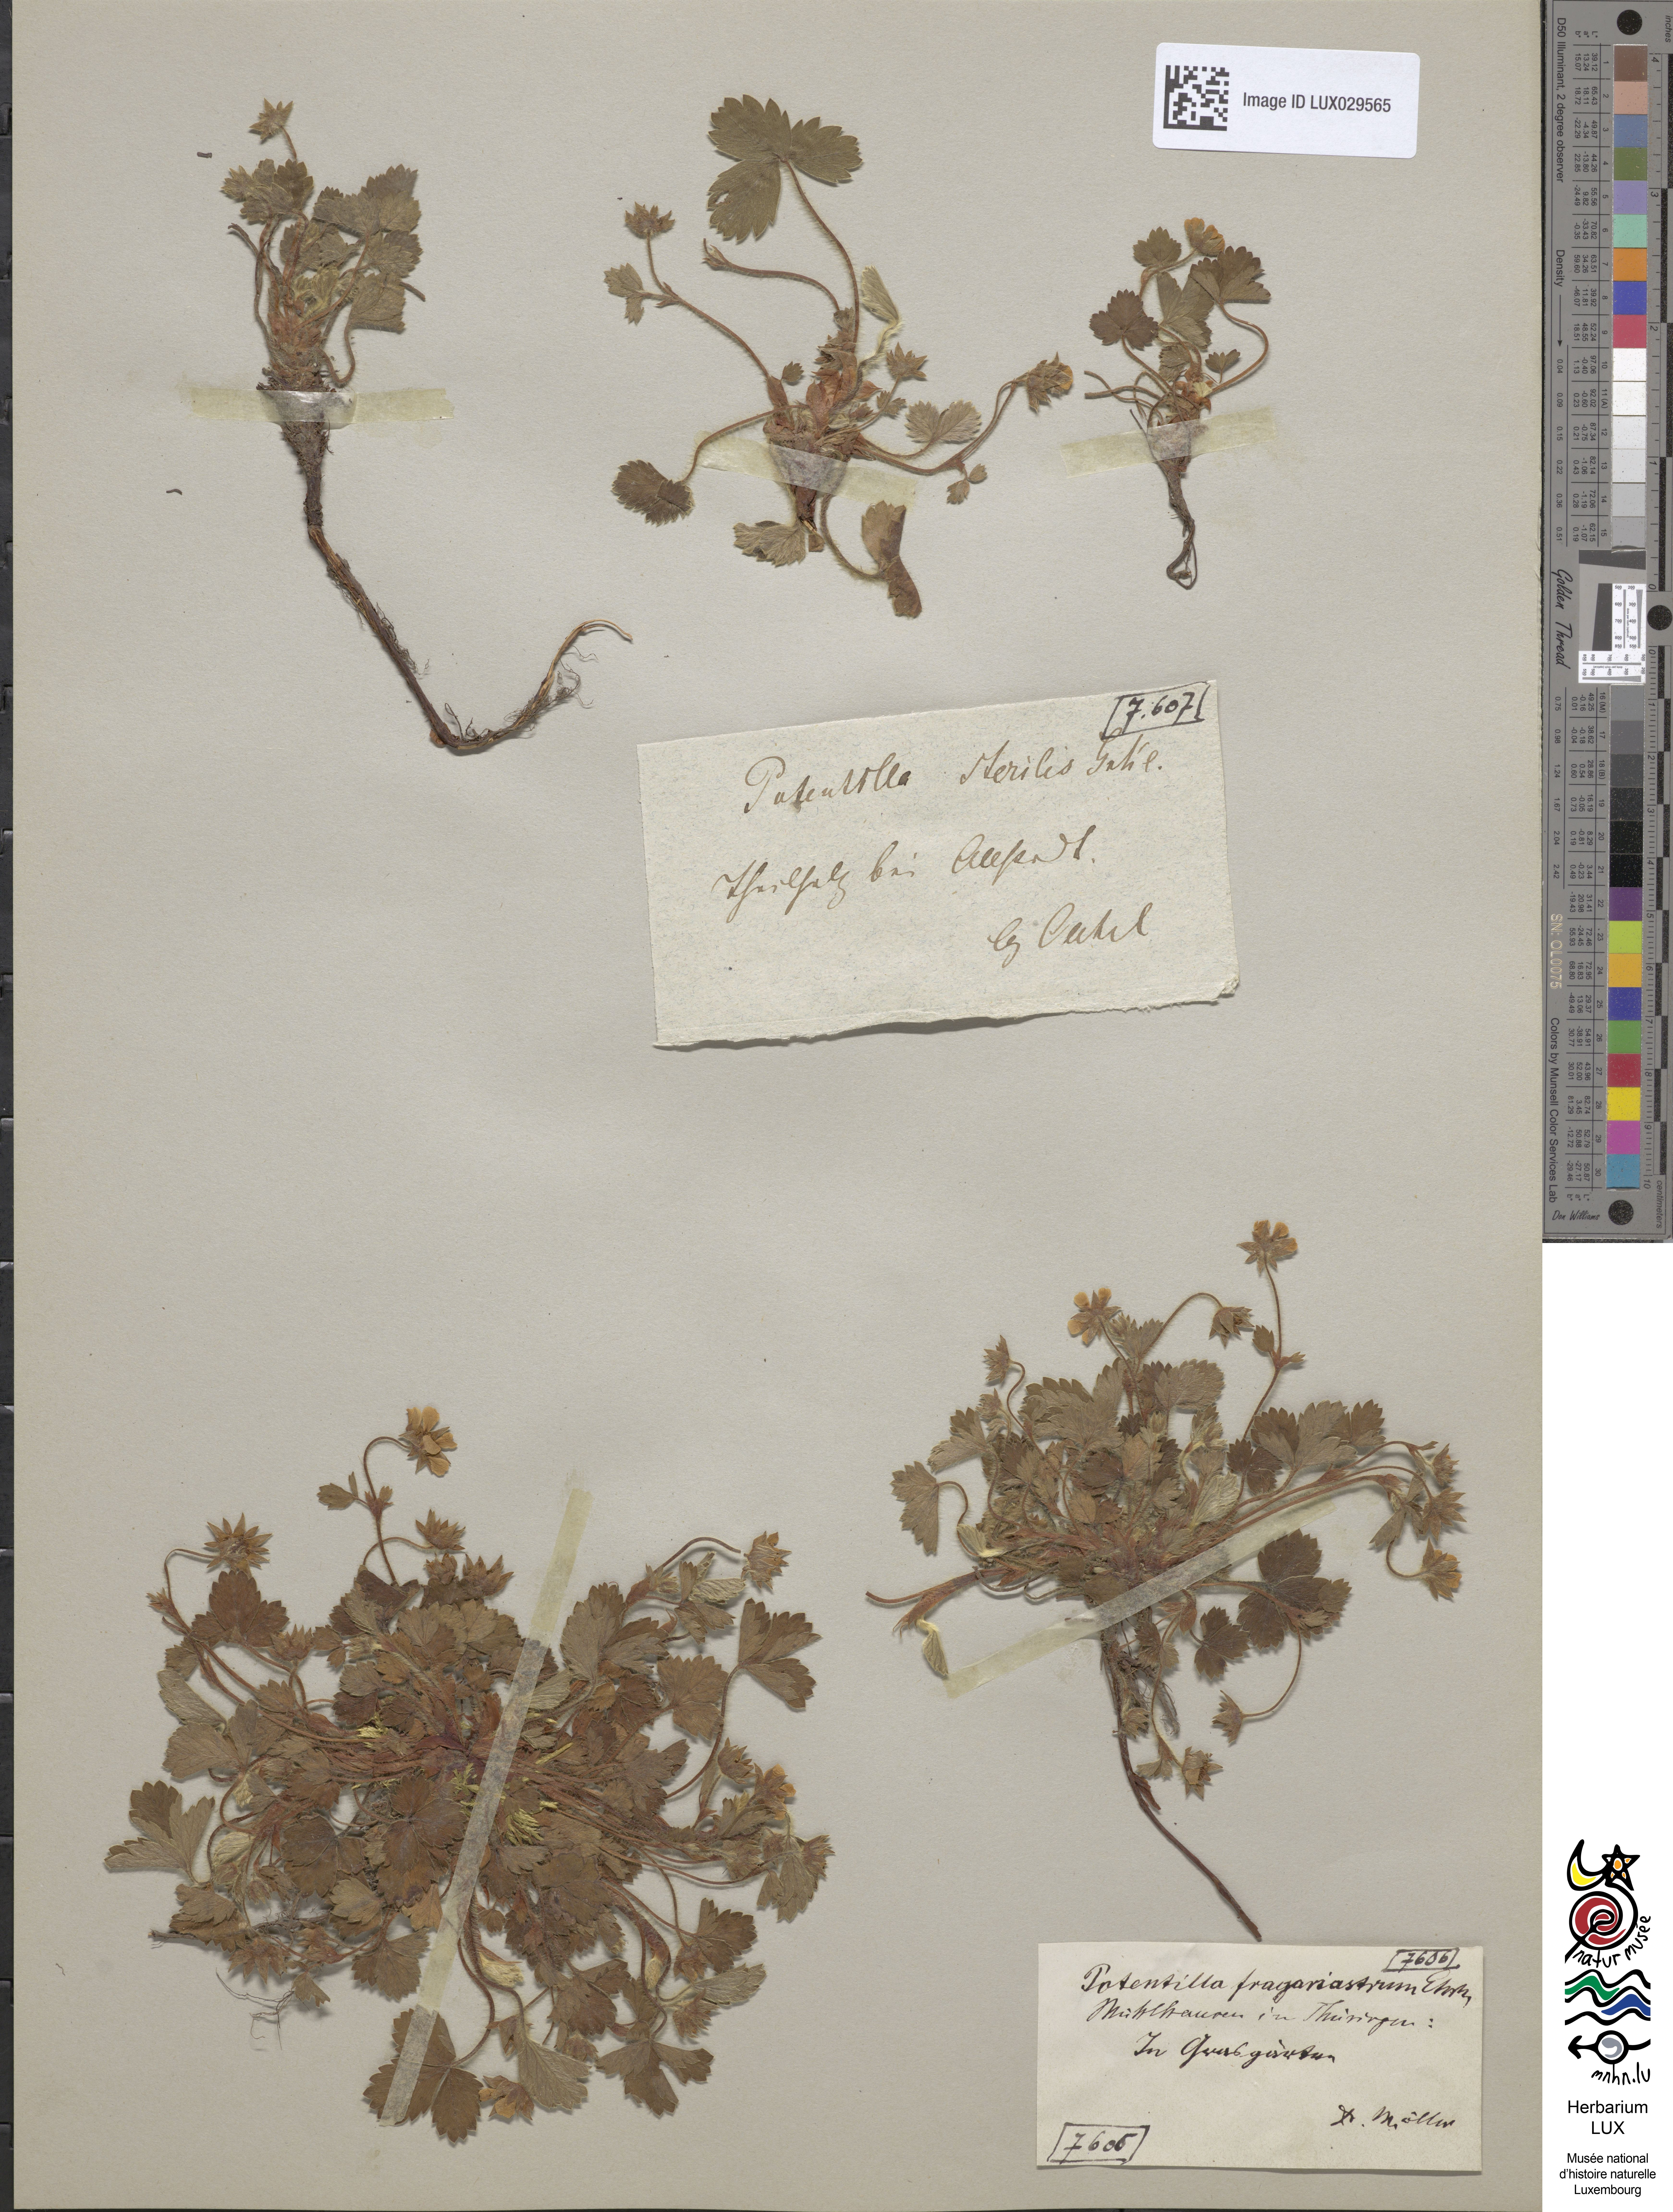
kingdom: Plantae
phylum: Tracheophyta
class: Magnoliopsida
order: Rosales
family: Rosaceae
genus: Potentilla
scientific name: Potentilla sterilis
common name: Barren strawberry
